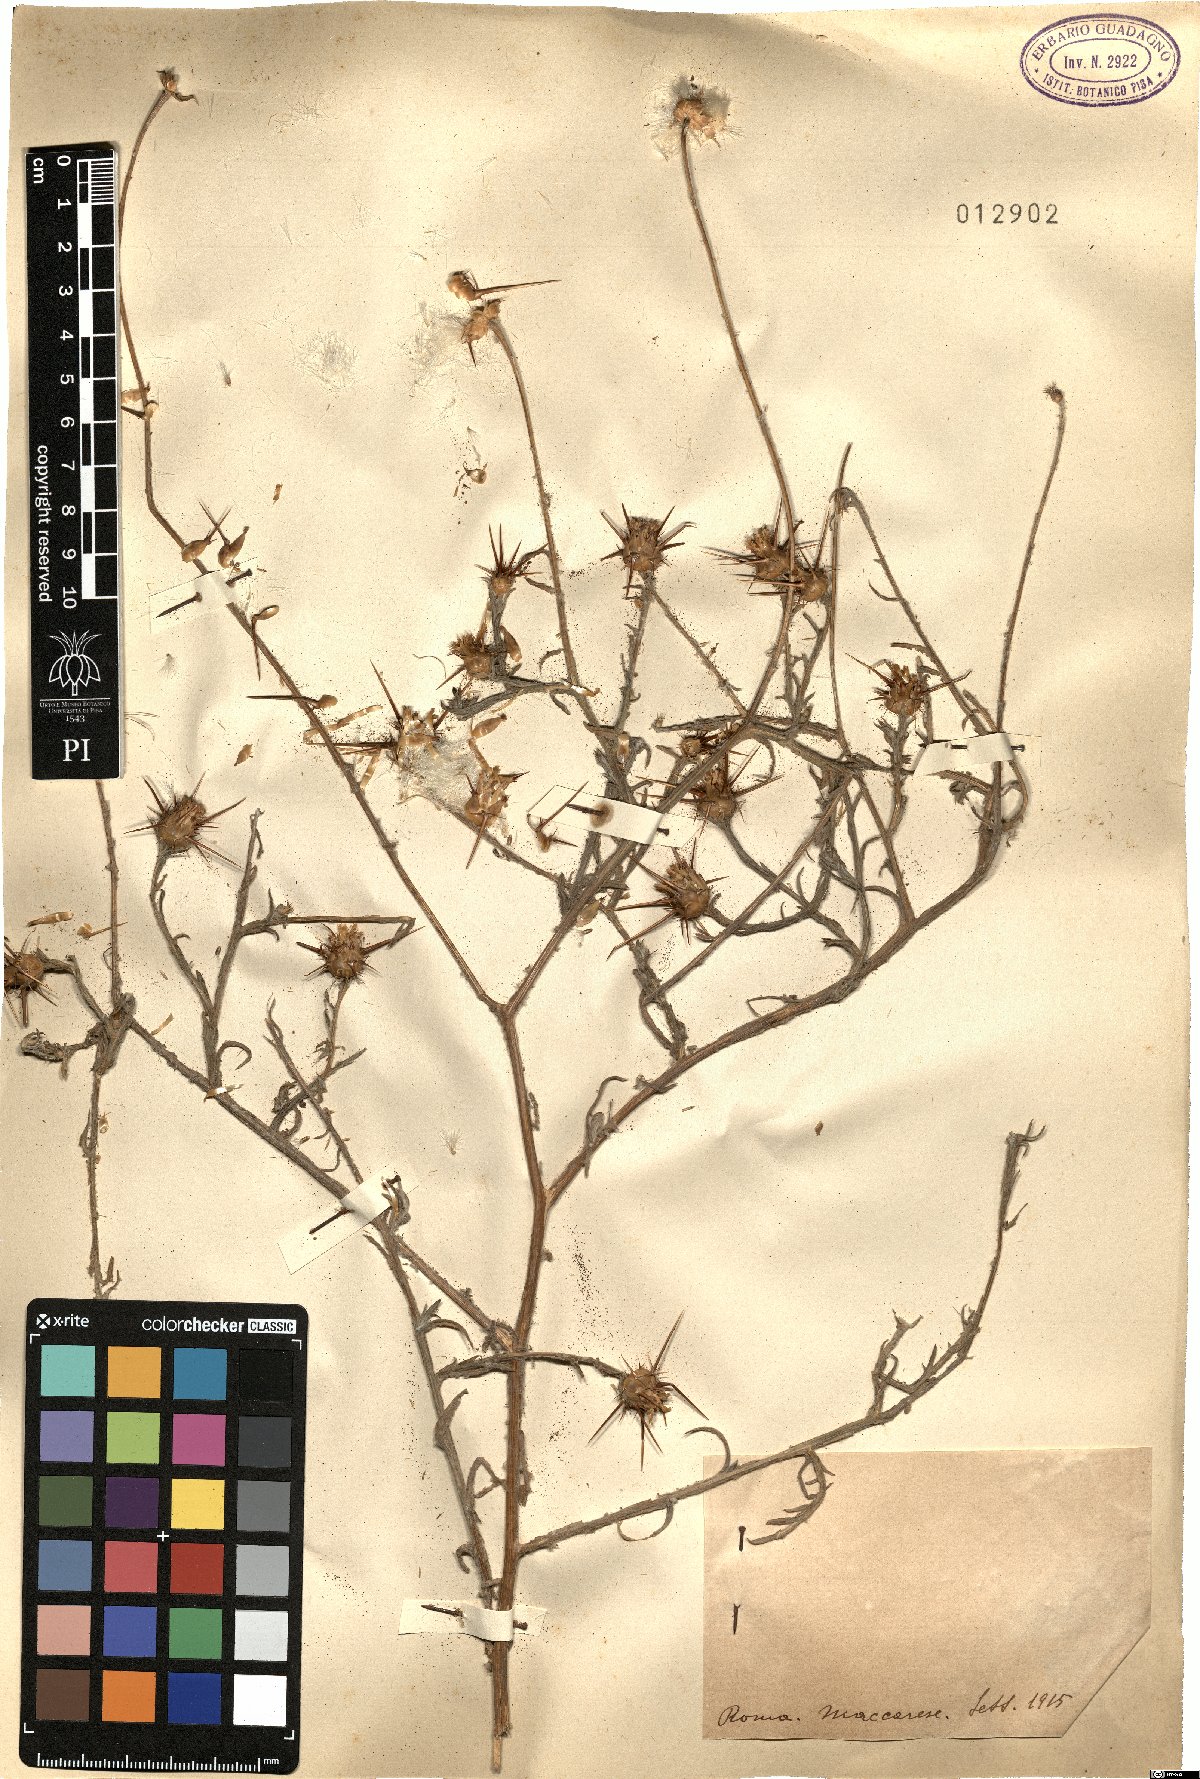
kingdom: Plantae
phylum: Tracheophyta
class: Magnoliopsida
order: Asterales
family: Asteraceae
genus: Centaurea
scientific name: Centaurea
